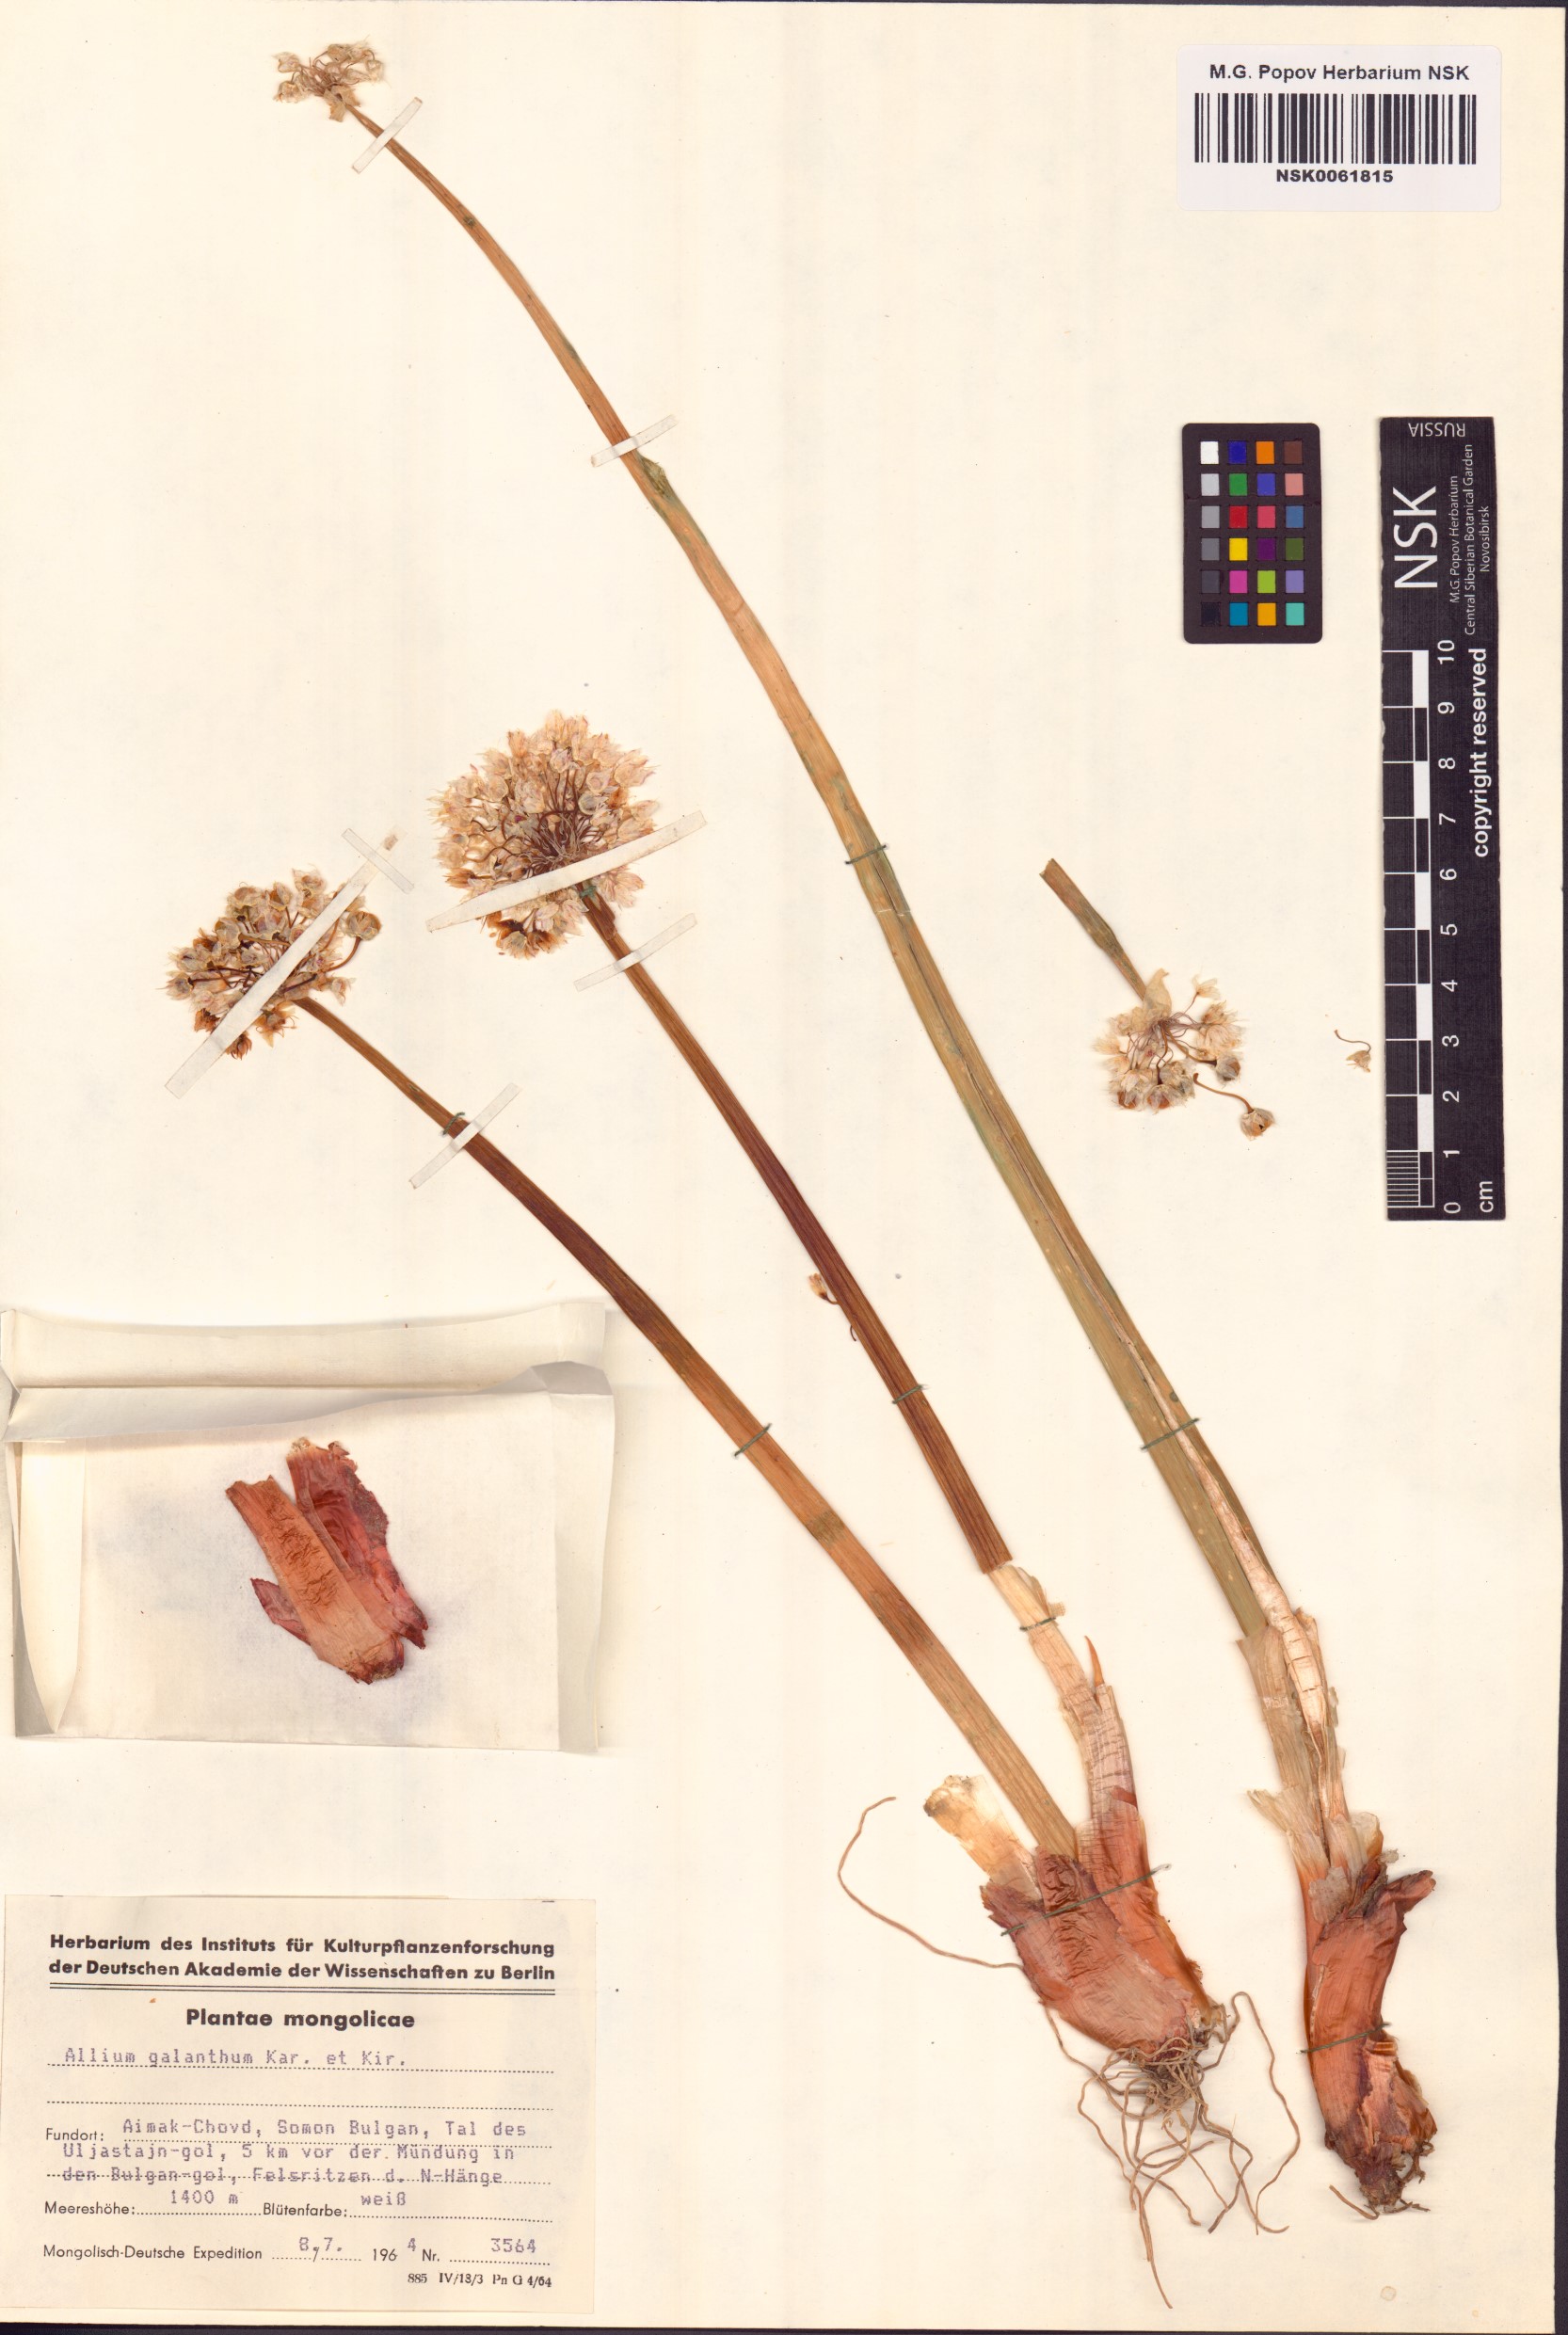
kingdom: Plantae
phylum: Tracheophyta
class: Liliopsida
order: Asparagales
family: Amaryllidaceae
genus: Allium
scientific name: Allium galanthum
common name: Snowdrop onion
